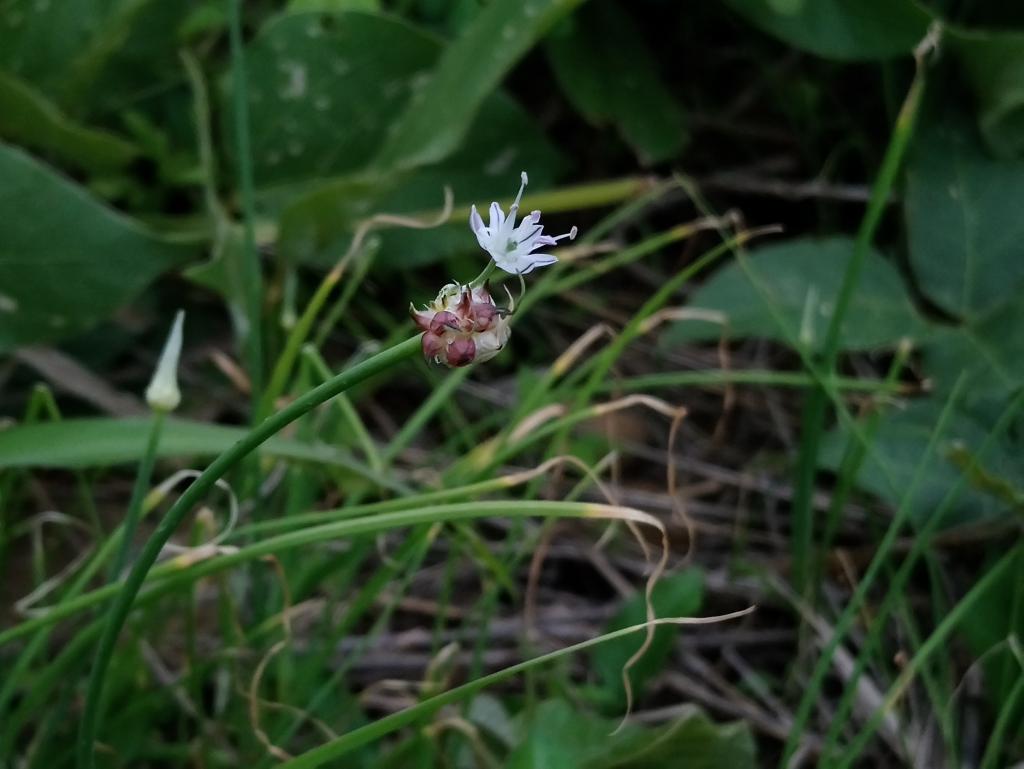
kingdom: Plantae
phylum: Tracheophyta
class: Liliopsida
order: Asparagales
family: Amaryllidaceae
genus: Allium
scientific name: Allium macrostemon
